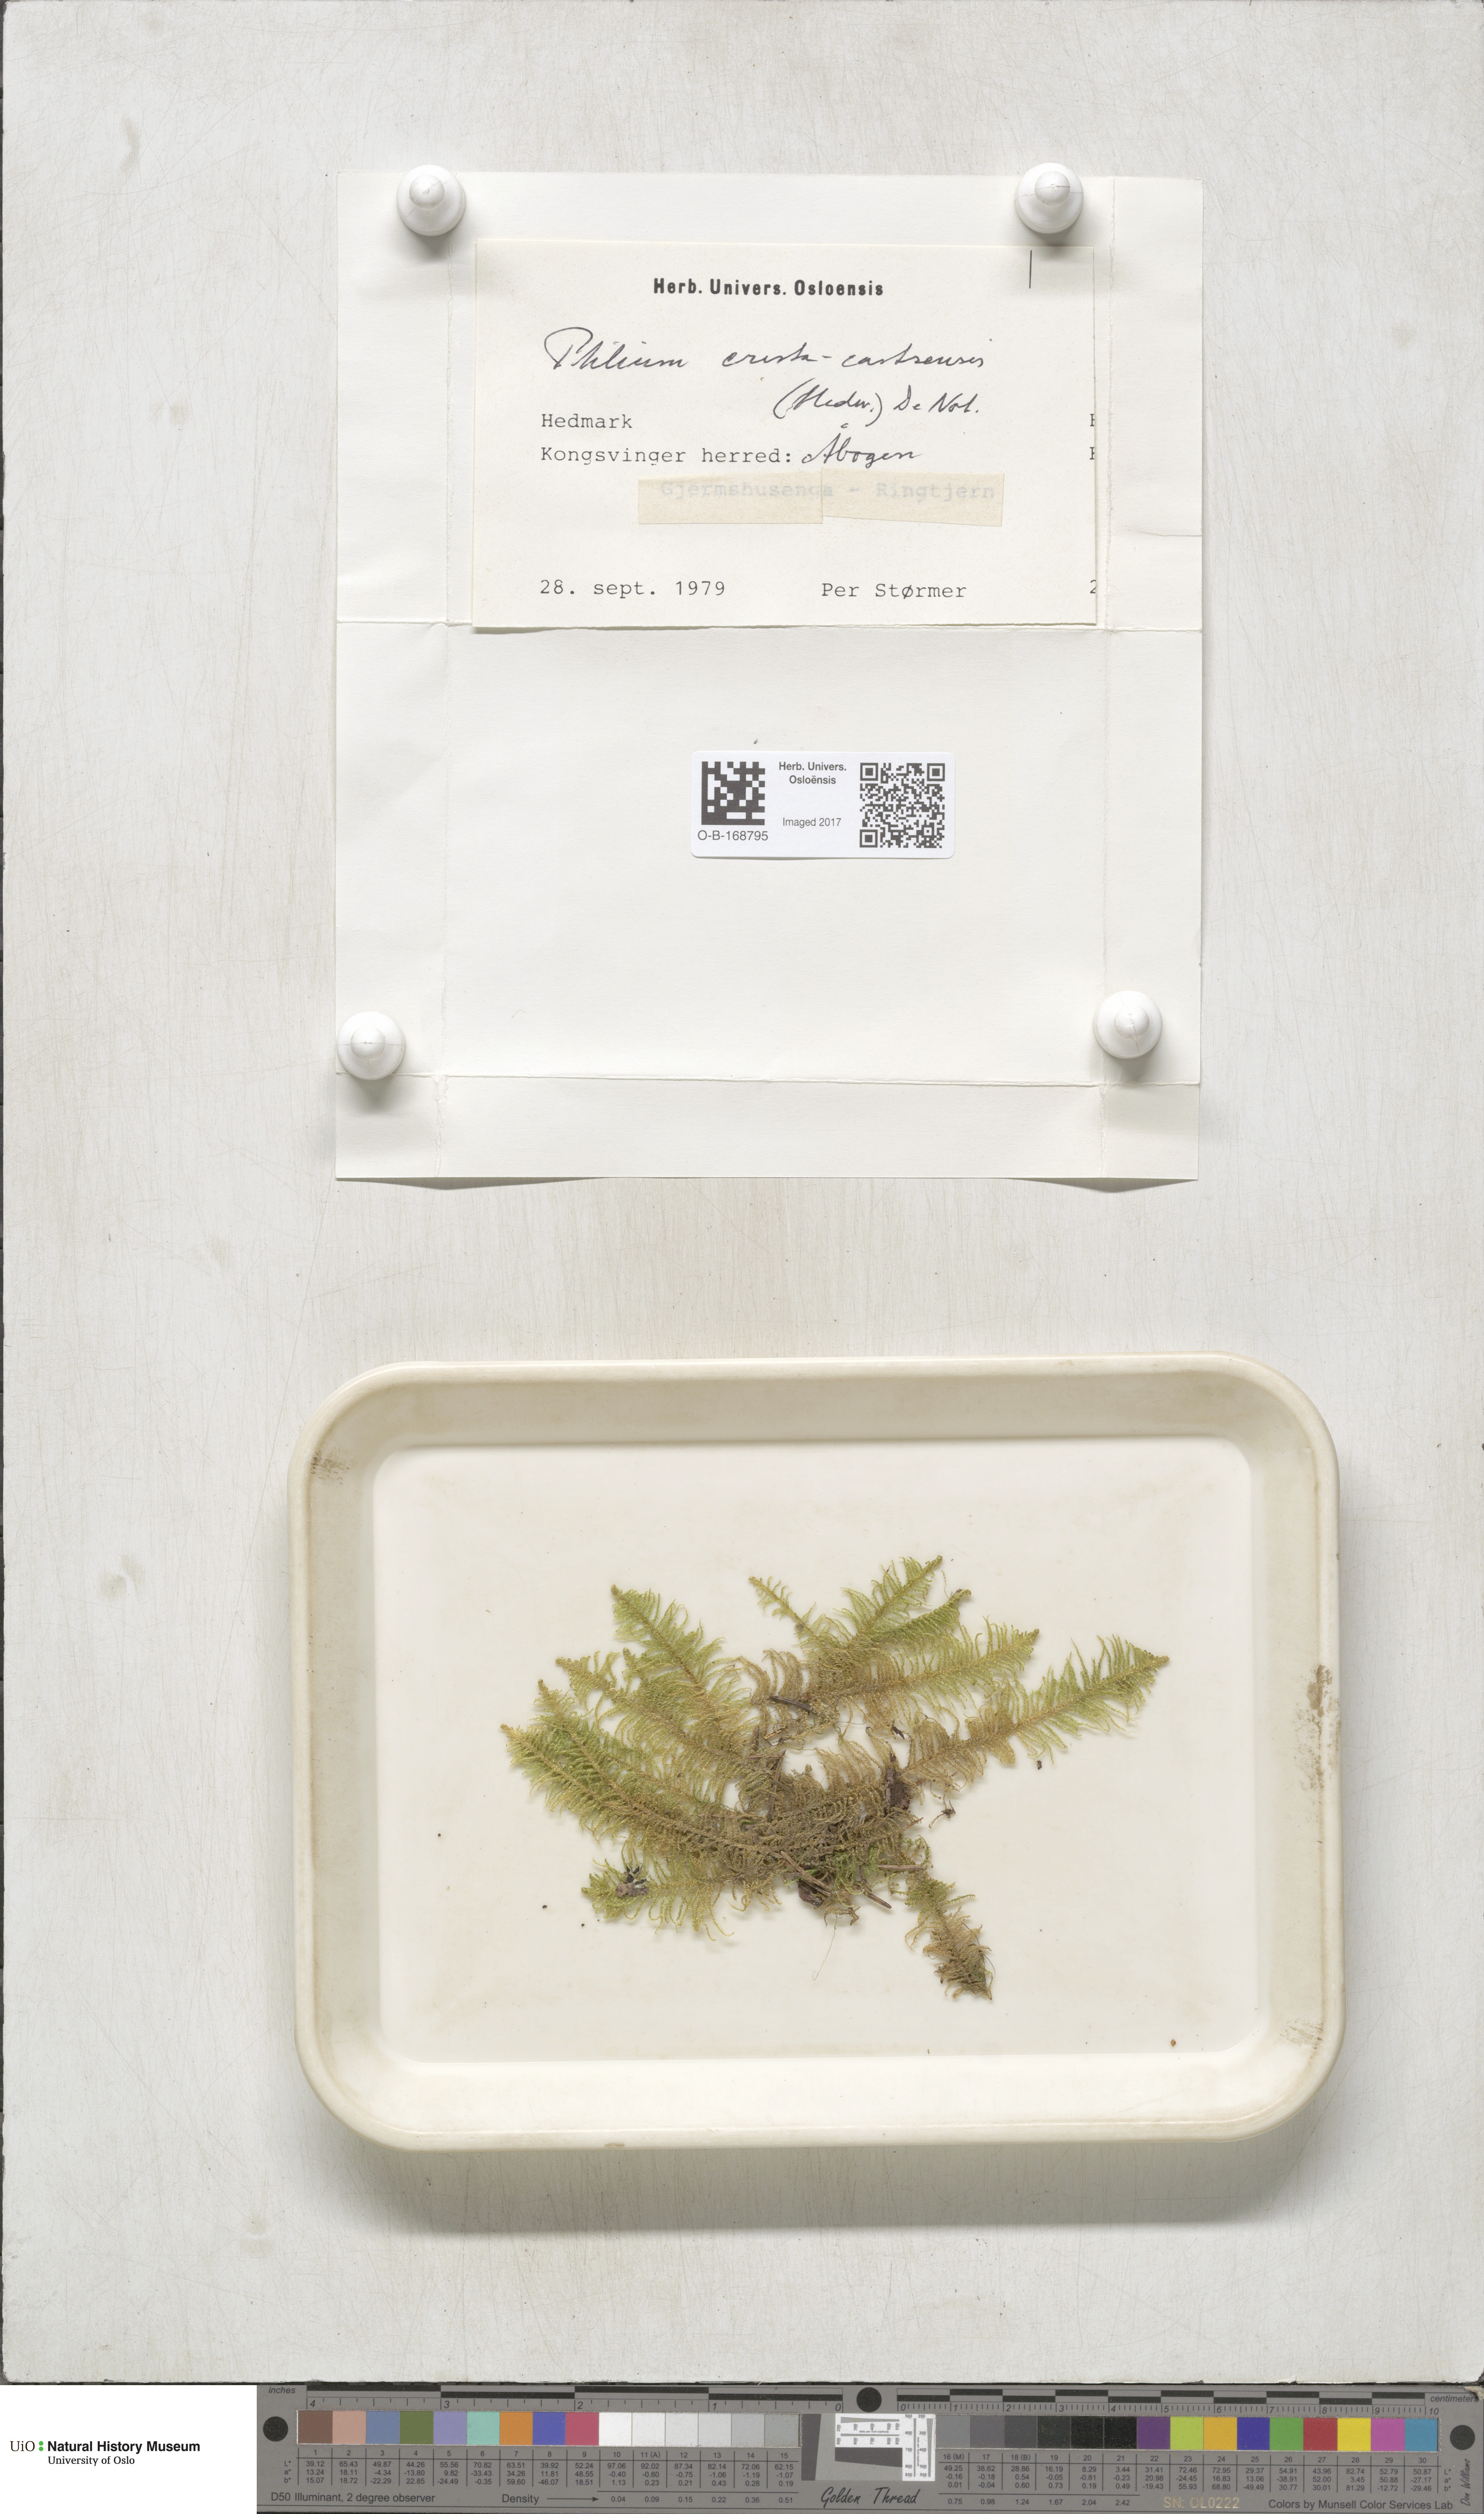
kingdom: Plantae
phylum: Bryophyta
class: Bryopsida
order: Hypnales
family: Pylaisiaceae
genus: Ptilium
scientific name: Ptilium crista-castrensis
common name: Knight's plume moss
